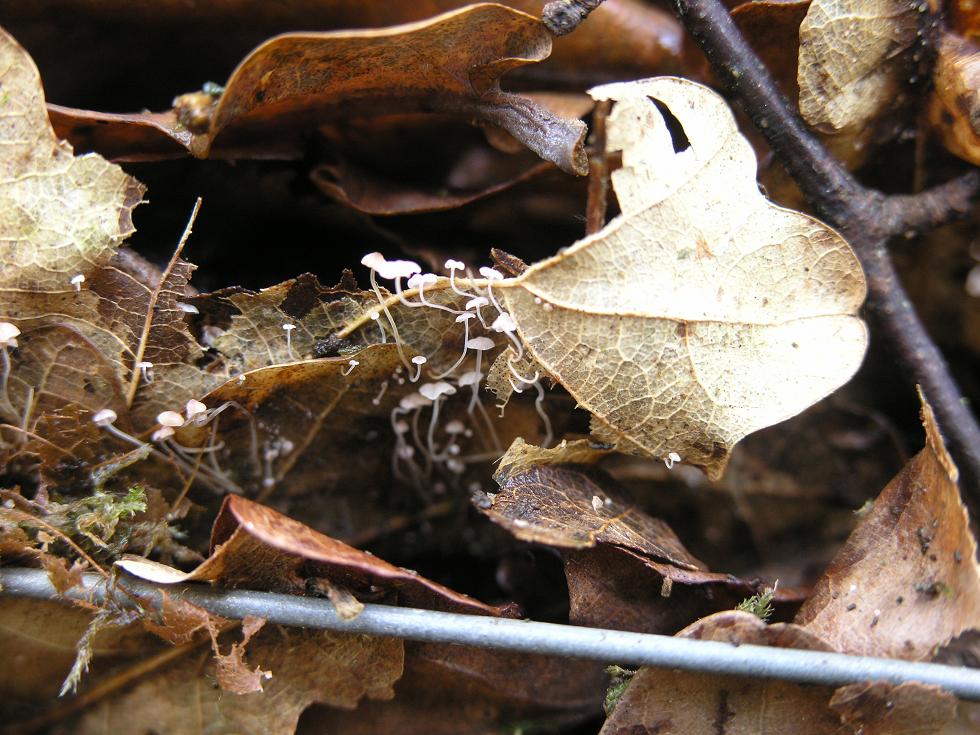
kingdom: Fungi
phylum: Basidiomycota
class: Agaricomycetes
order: Agaricales
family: Mycenaceae
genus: Mycena
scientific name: Mycena smithiana
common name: blegrød huesvamp
